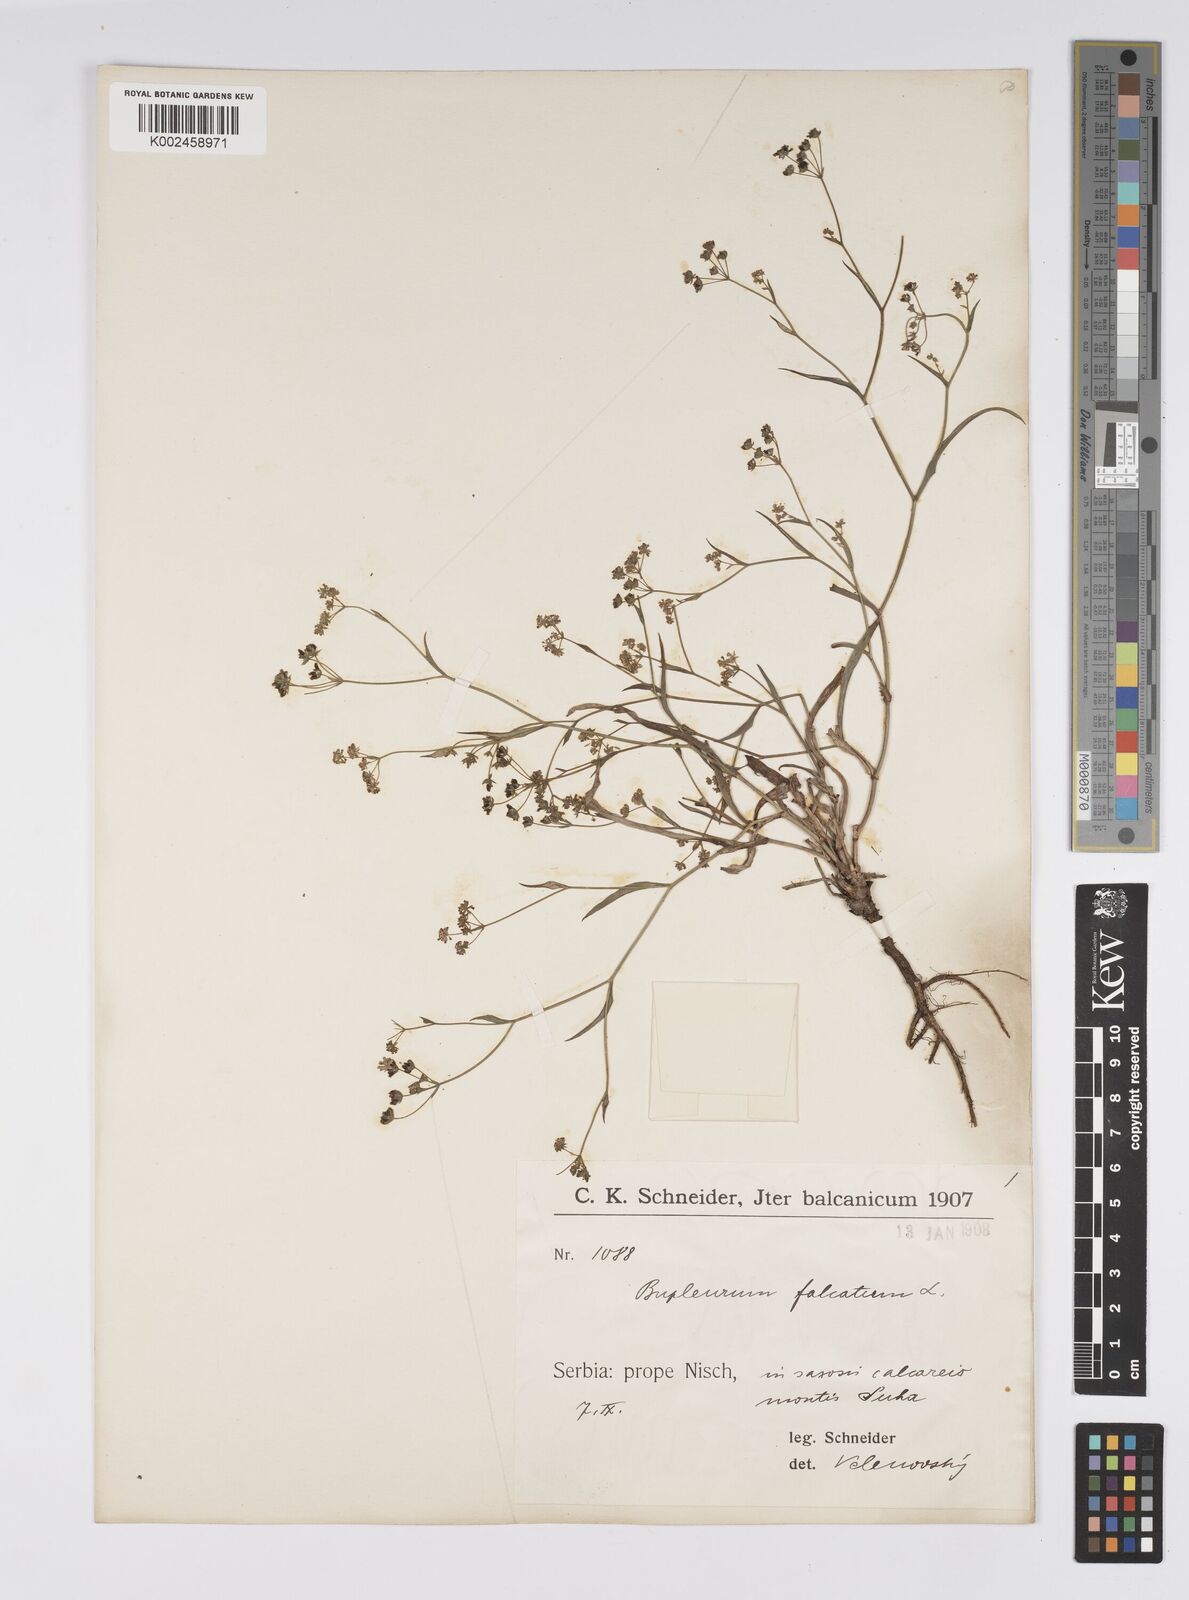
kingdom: Plantae
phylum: Tracheophyta
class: Magnoliopsida
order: Apiales
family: Apiaceae
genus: Bupleurum
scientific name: Bupleurum falcatum
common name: Sickle-leaved hare's-ear
